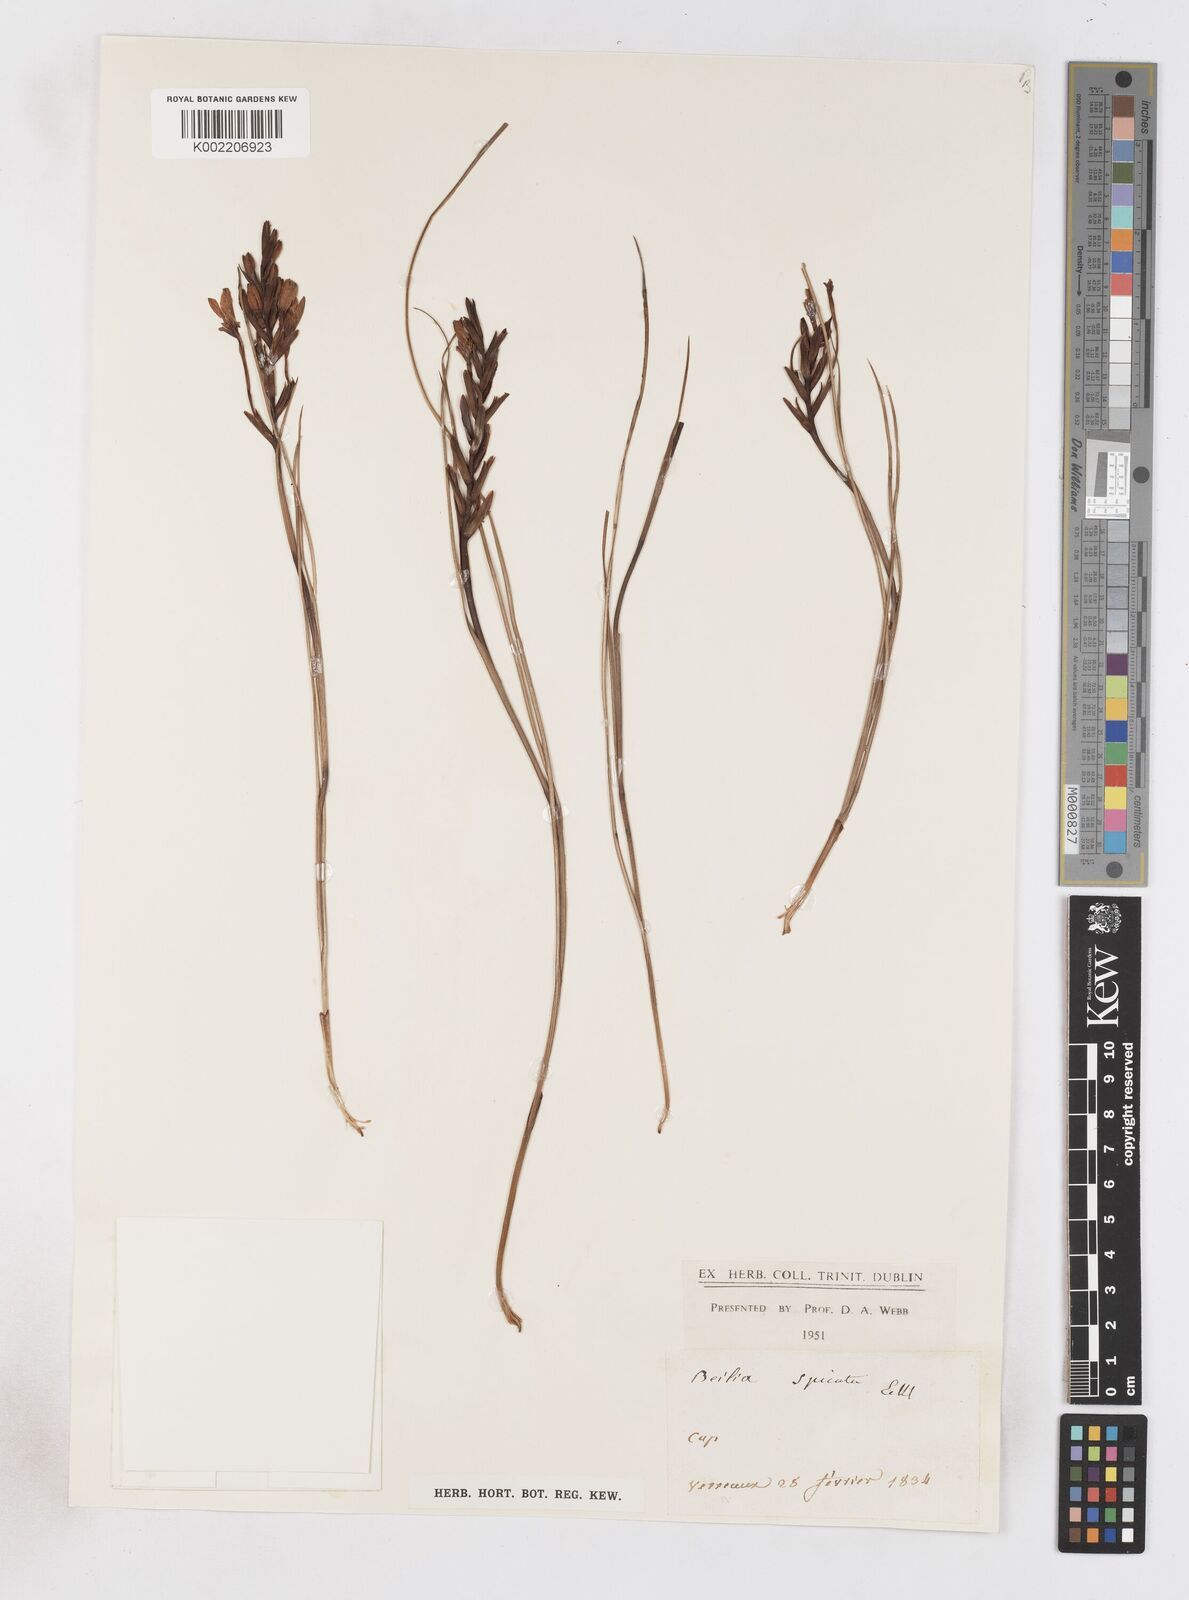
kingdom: Plantae
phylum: Tracheophyta
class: Magnoliopsida
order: Lamiales
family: Acanthaceae
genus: Phaulopsis
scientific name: Phaulopsis barteri
